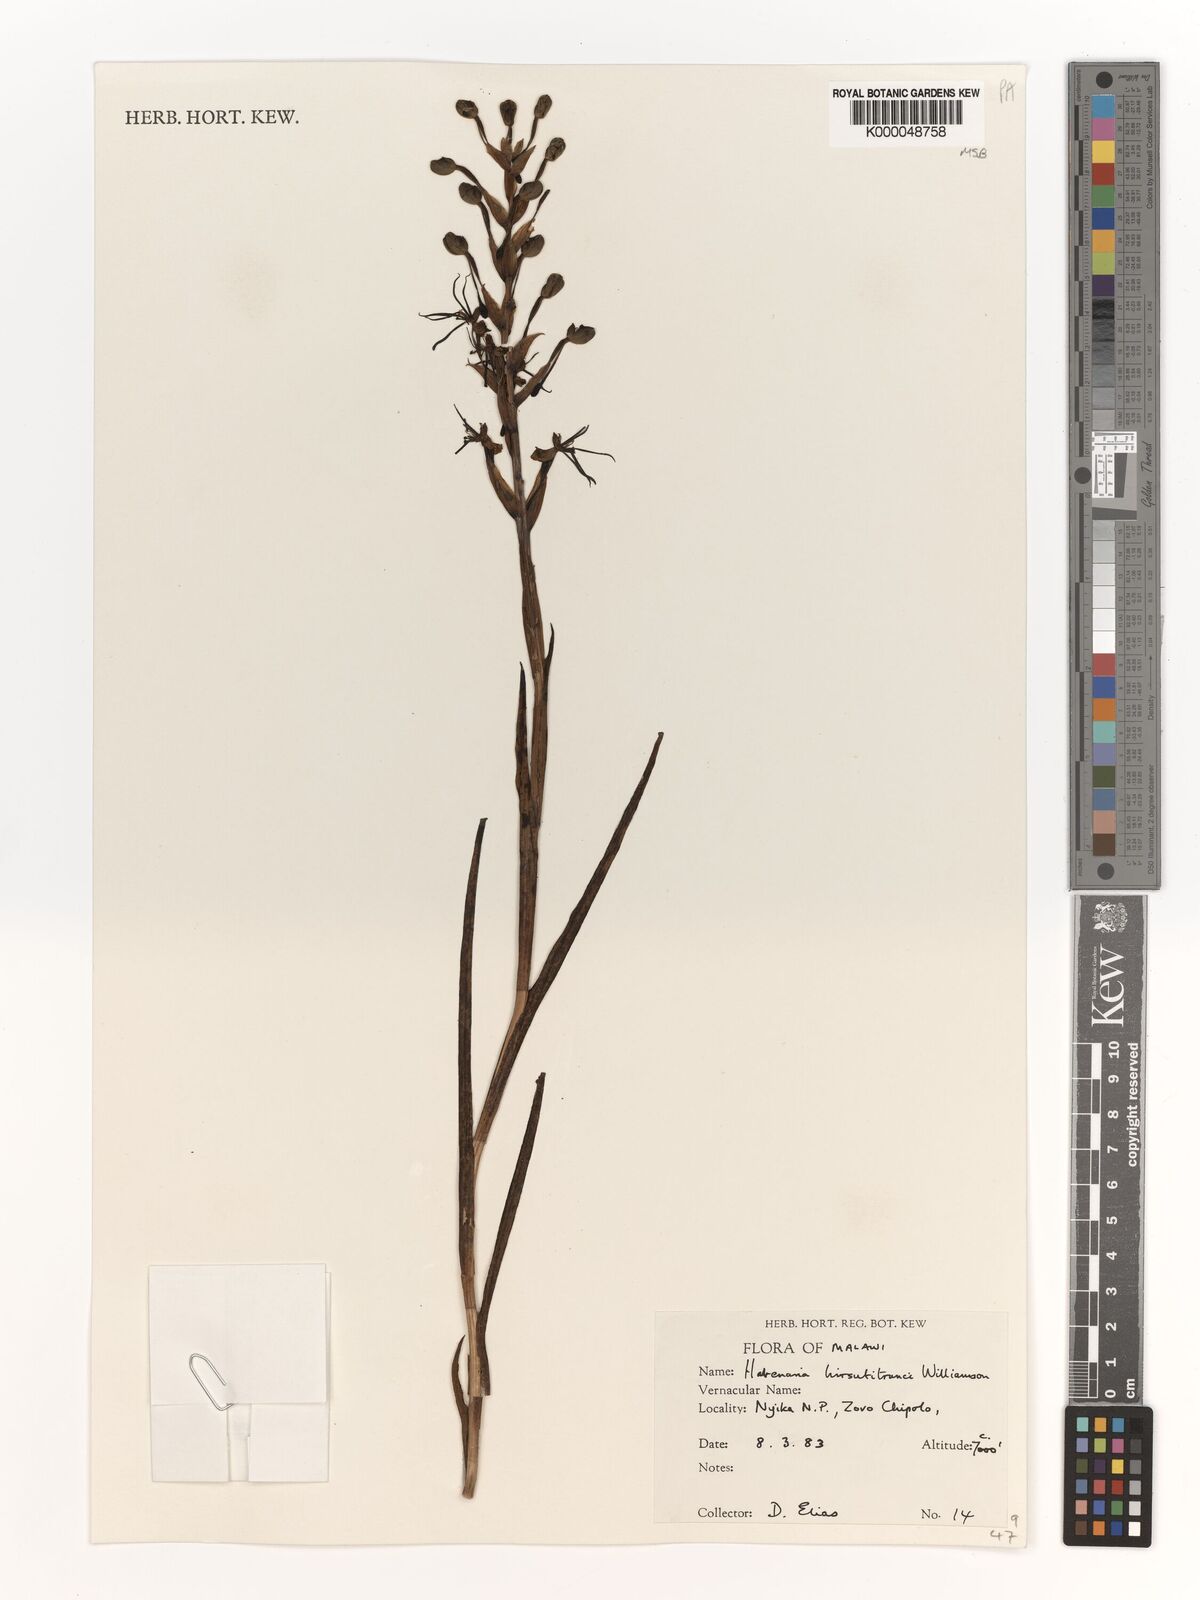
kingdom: Plantae
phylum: Tracheophyta
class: Liliopsida
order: Asparagales
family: Orchidaceae
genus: Habenaria
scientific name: Habenaria
